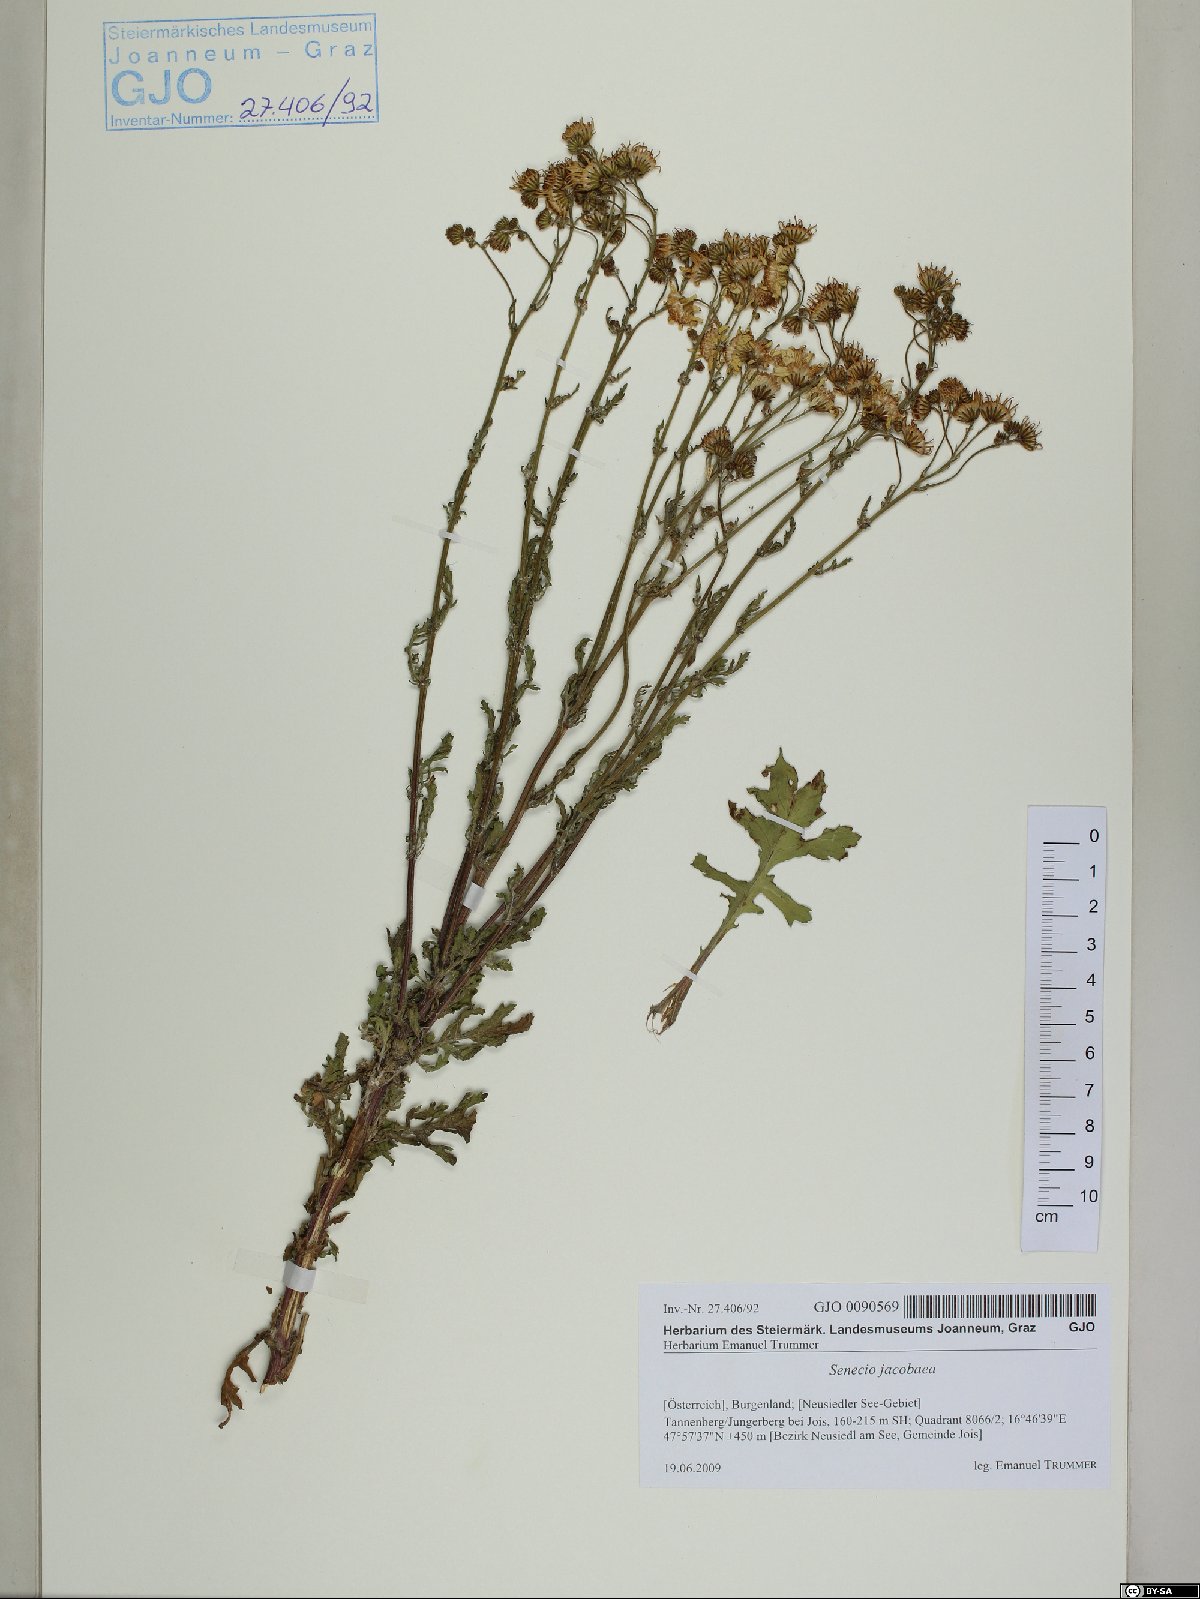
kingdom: Plantae
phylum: Tracheophyta
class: Magnoliopsida
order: Asterales
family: Asteraceae
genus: Jacobaea
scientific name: Jacobaea vulgaris
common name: Stinking willie
